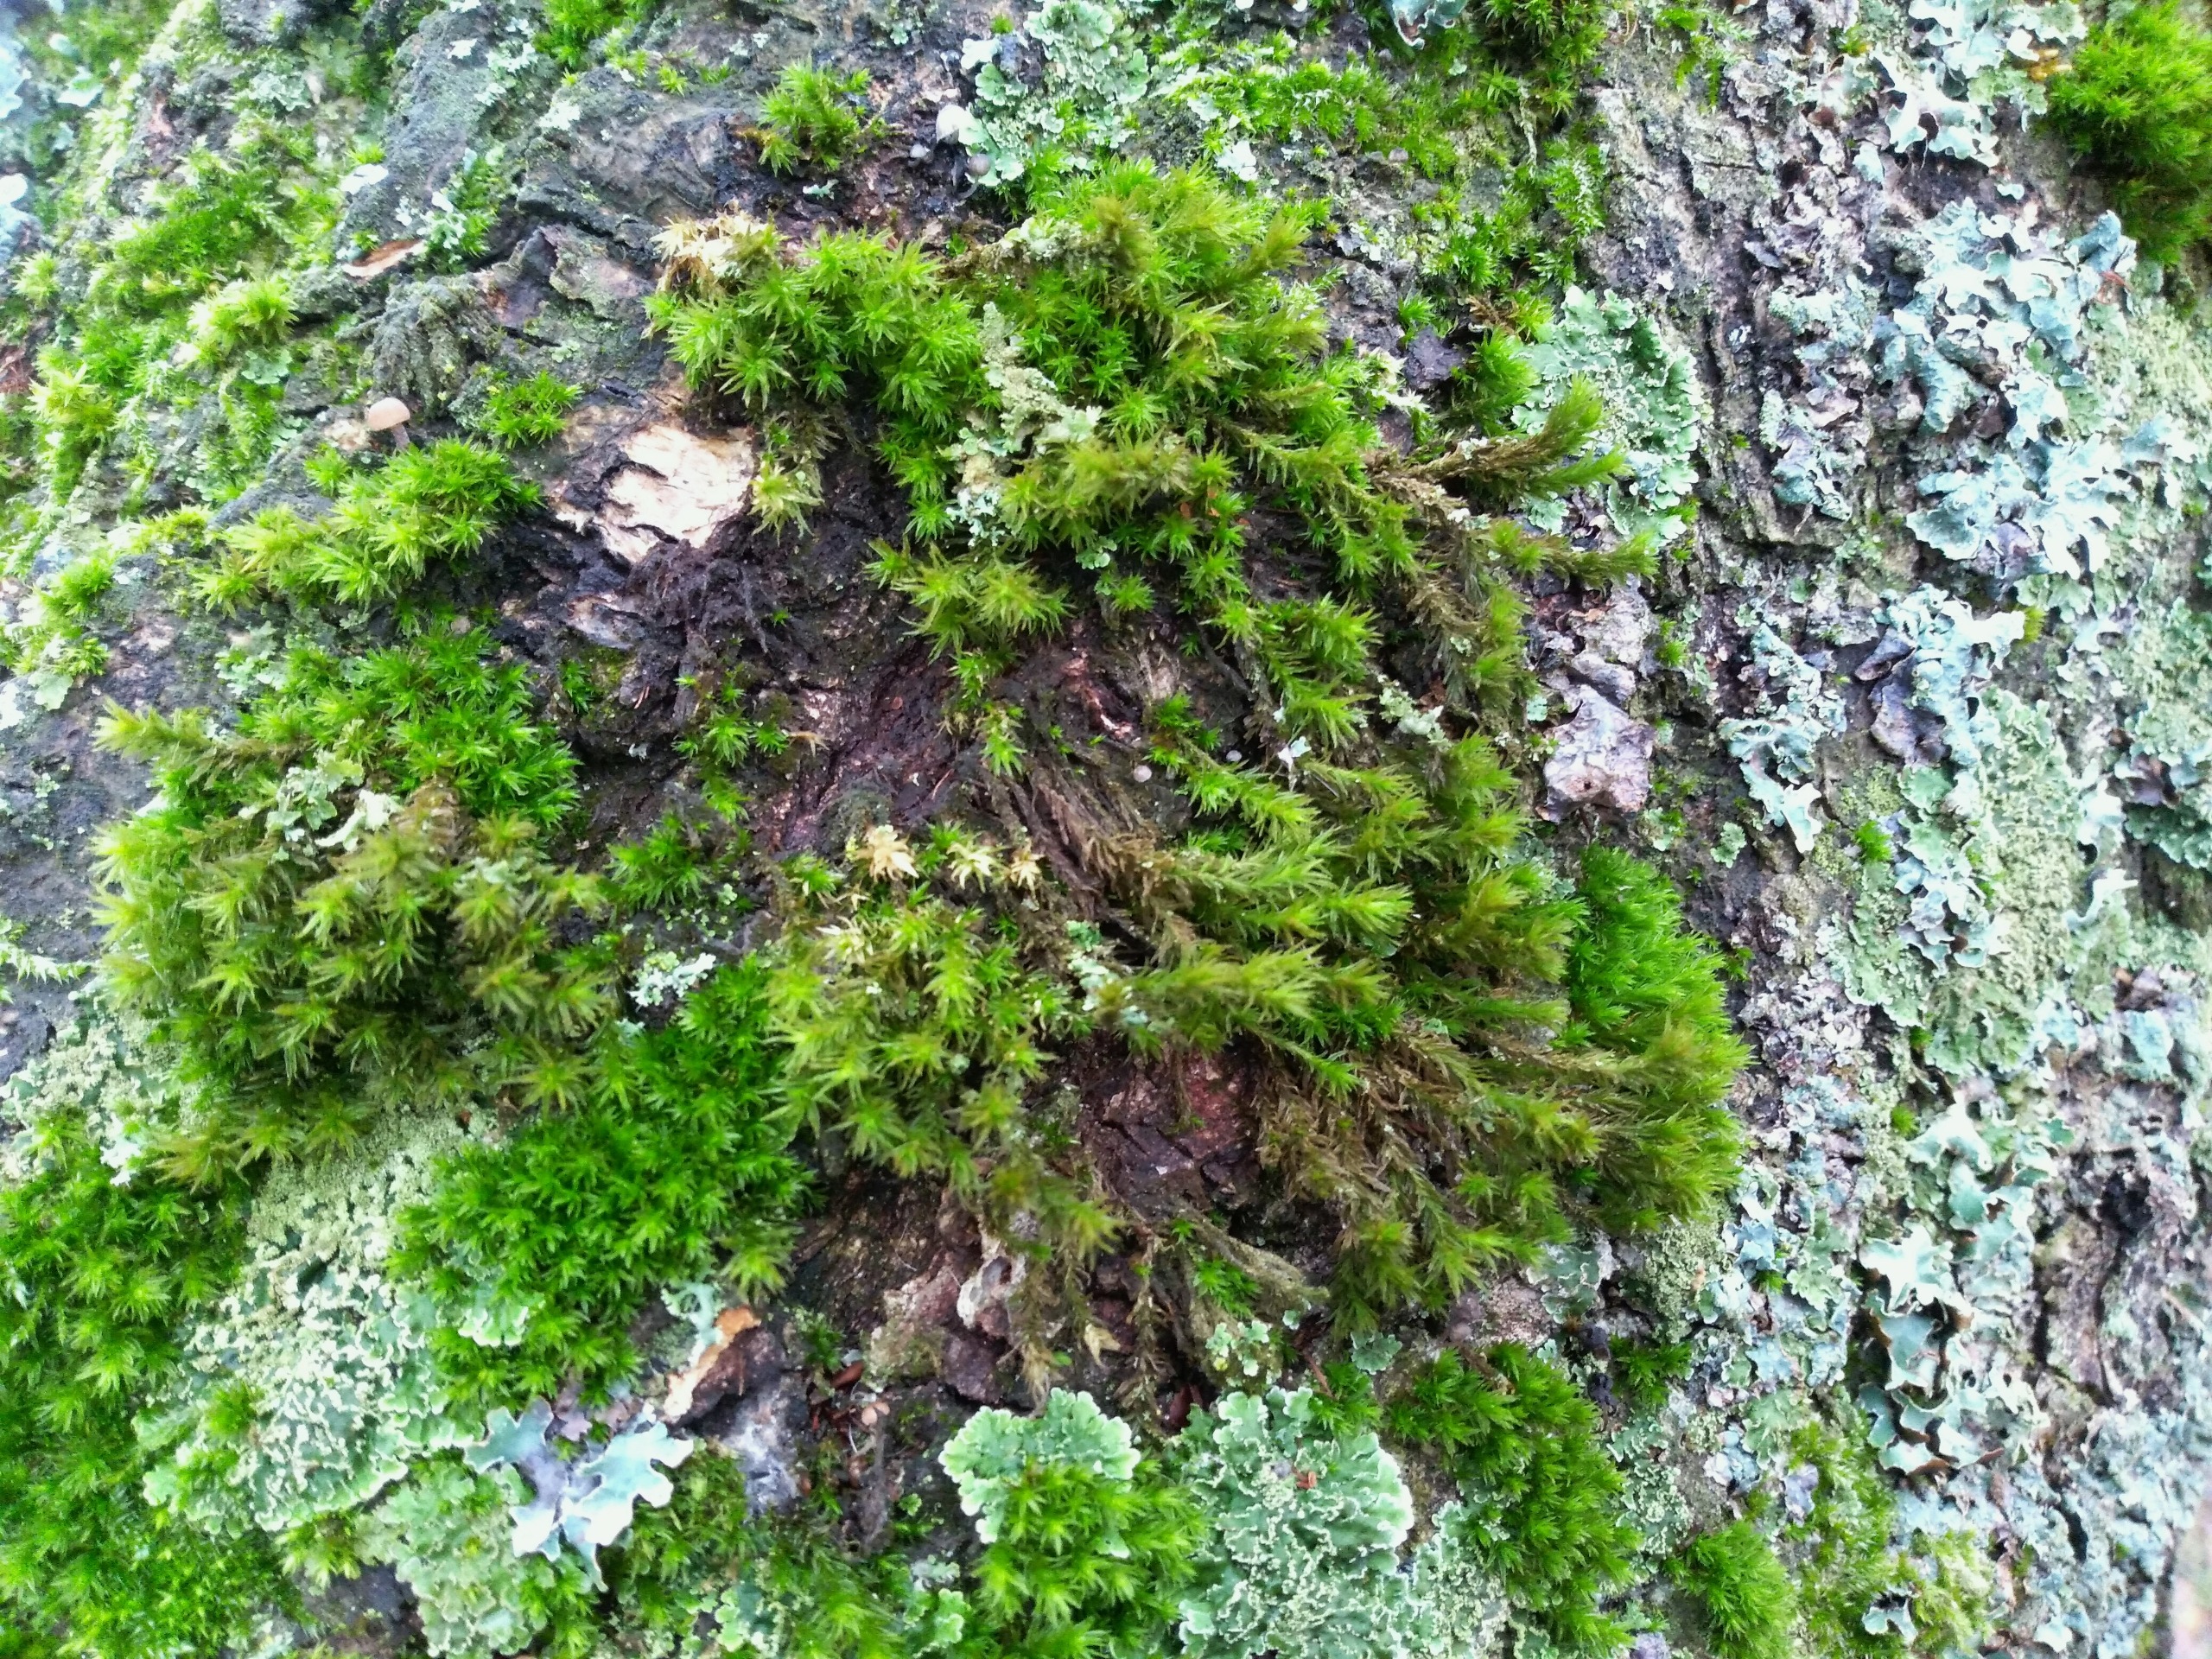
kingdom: Plantae
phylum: Bryophyta
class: Bryopsida
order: Orthotrichales
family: Orthotrichaceae
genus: Pulvigera
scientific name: Pulvigera lyellii
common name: Stor furehætte
